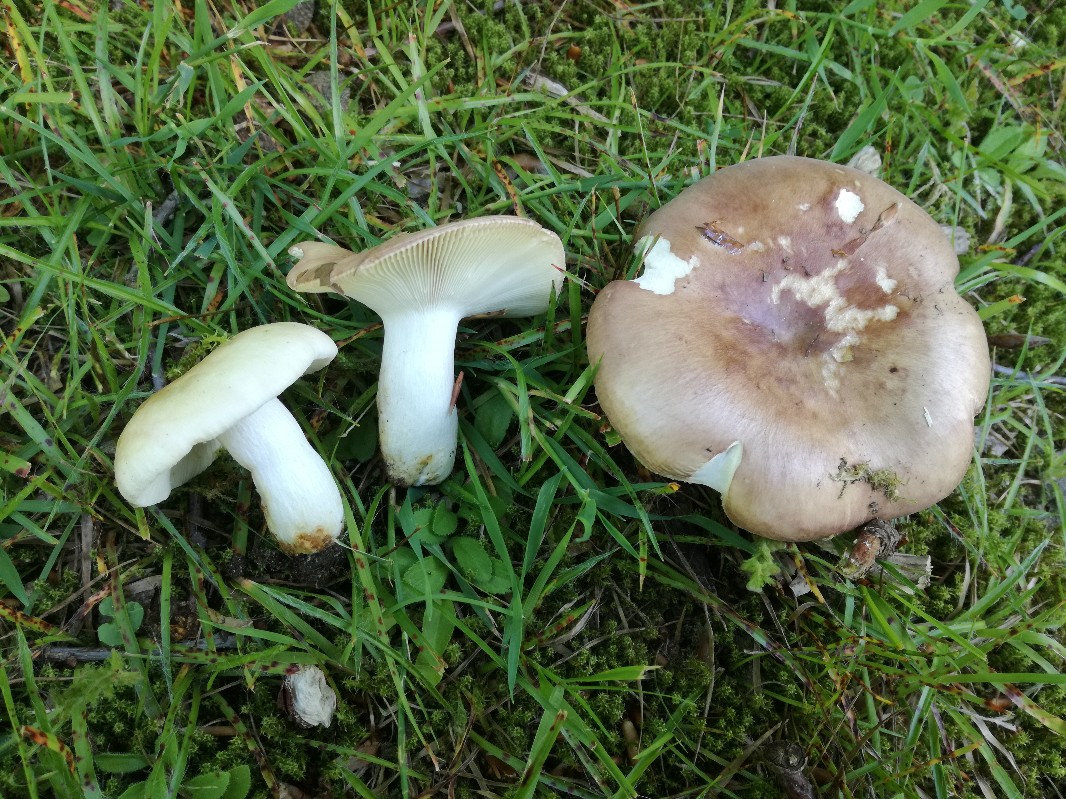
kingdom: Fungi
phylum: Basidiomycota
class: Agaricomycetes
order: Russulales
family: Russulaceae
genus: Russula
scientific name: Russula vesca
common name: spiselig skørhat
